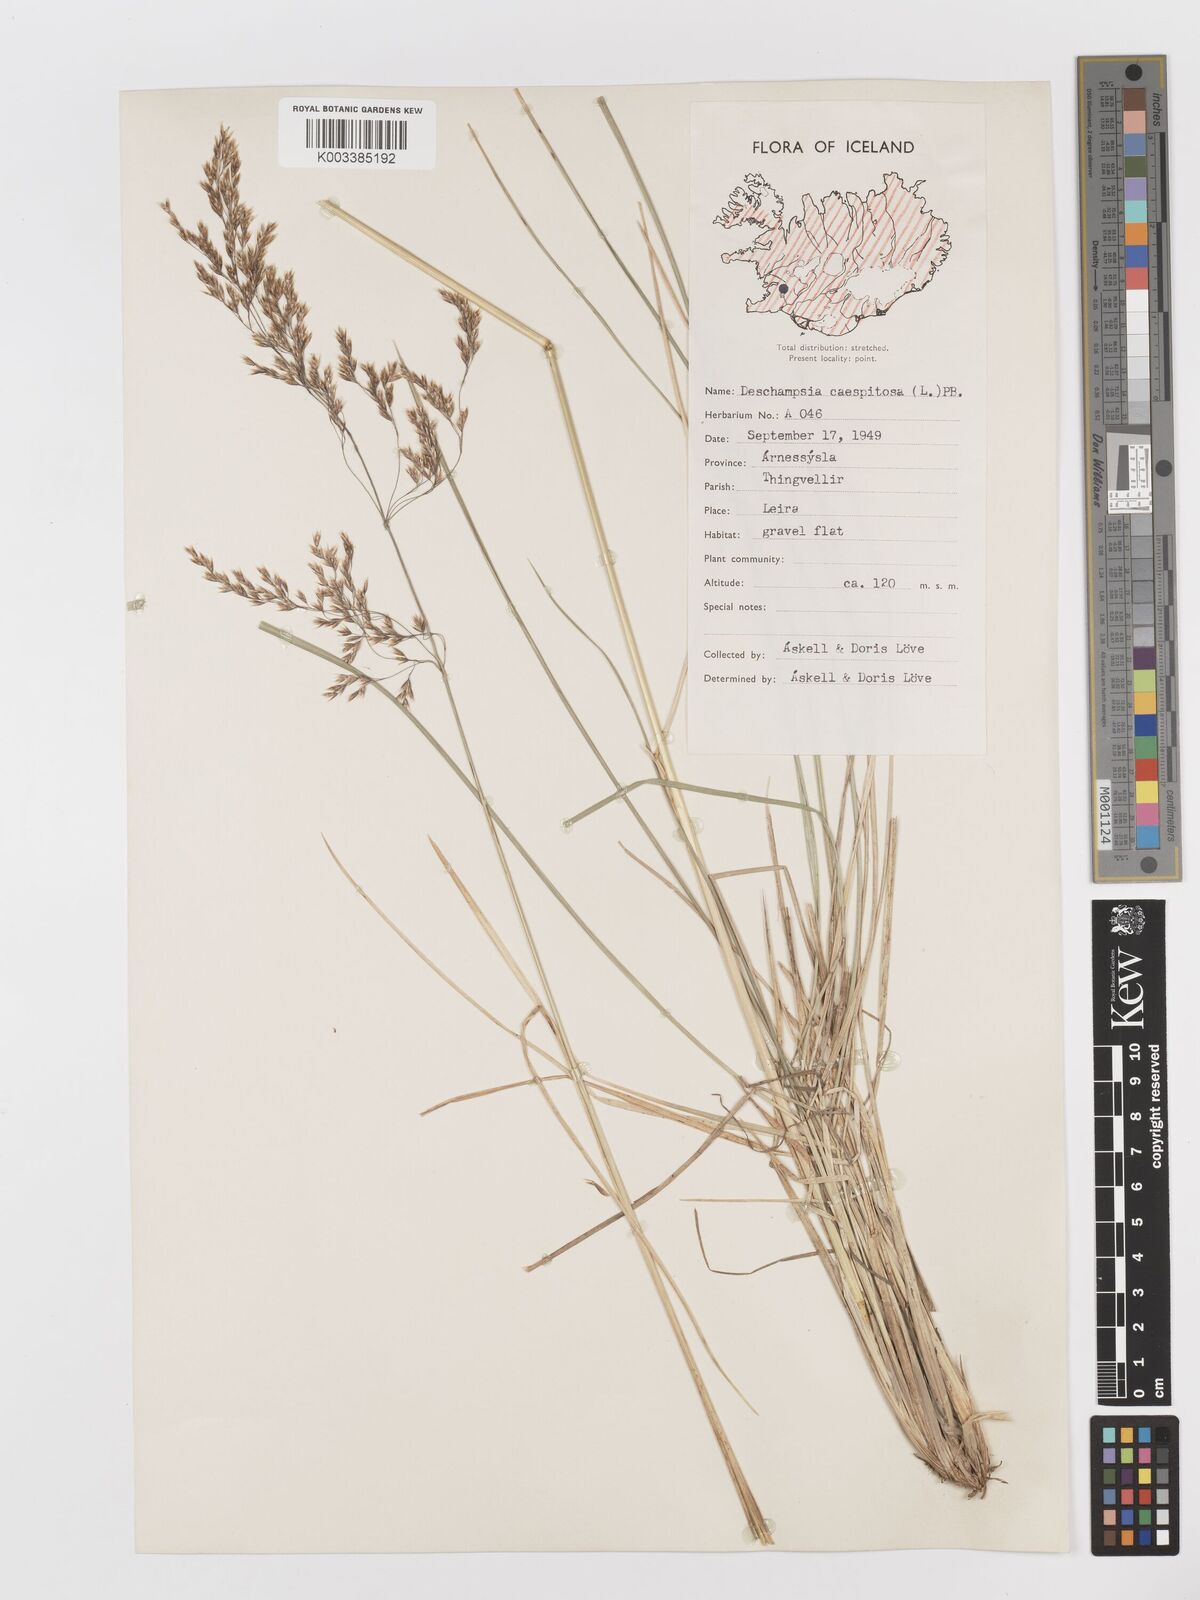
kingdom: Plantae
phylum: Tracheophyta
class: Liliopsida
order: Poales
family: Poaceae
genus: Deschampsia
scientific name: Deschampsia cespitosa
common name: Tufted hair-grass
